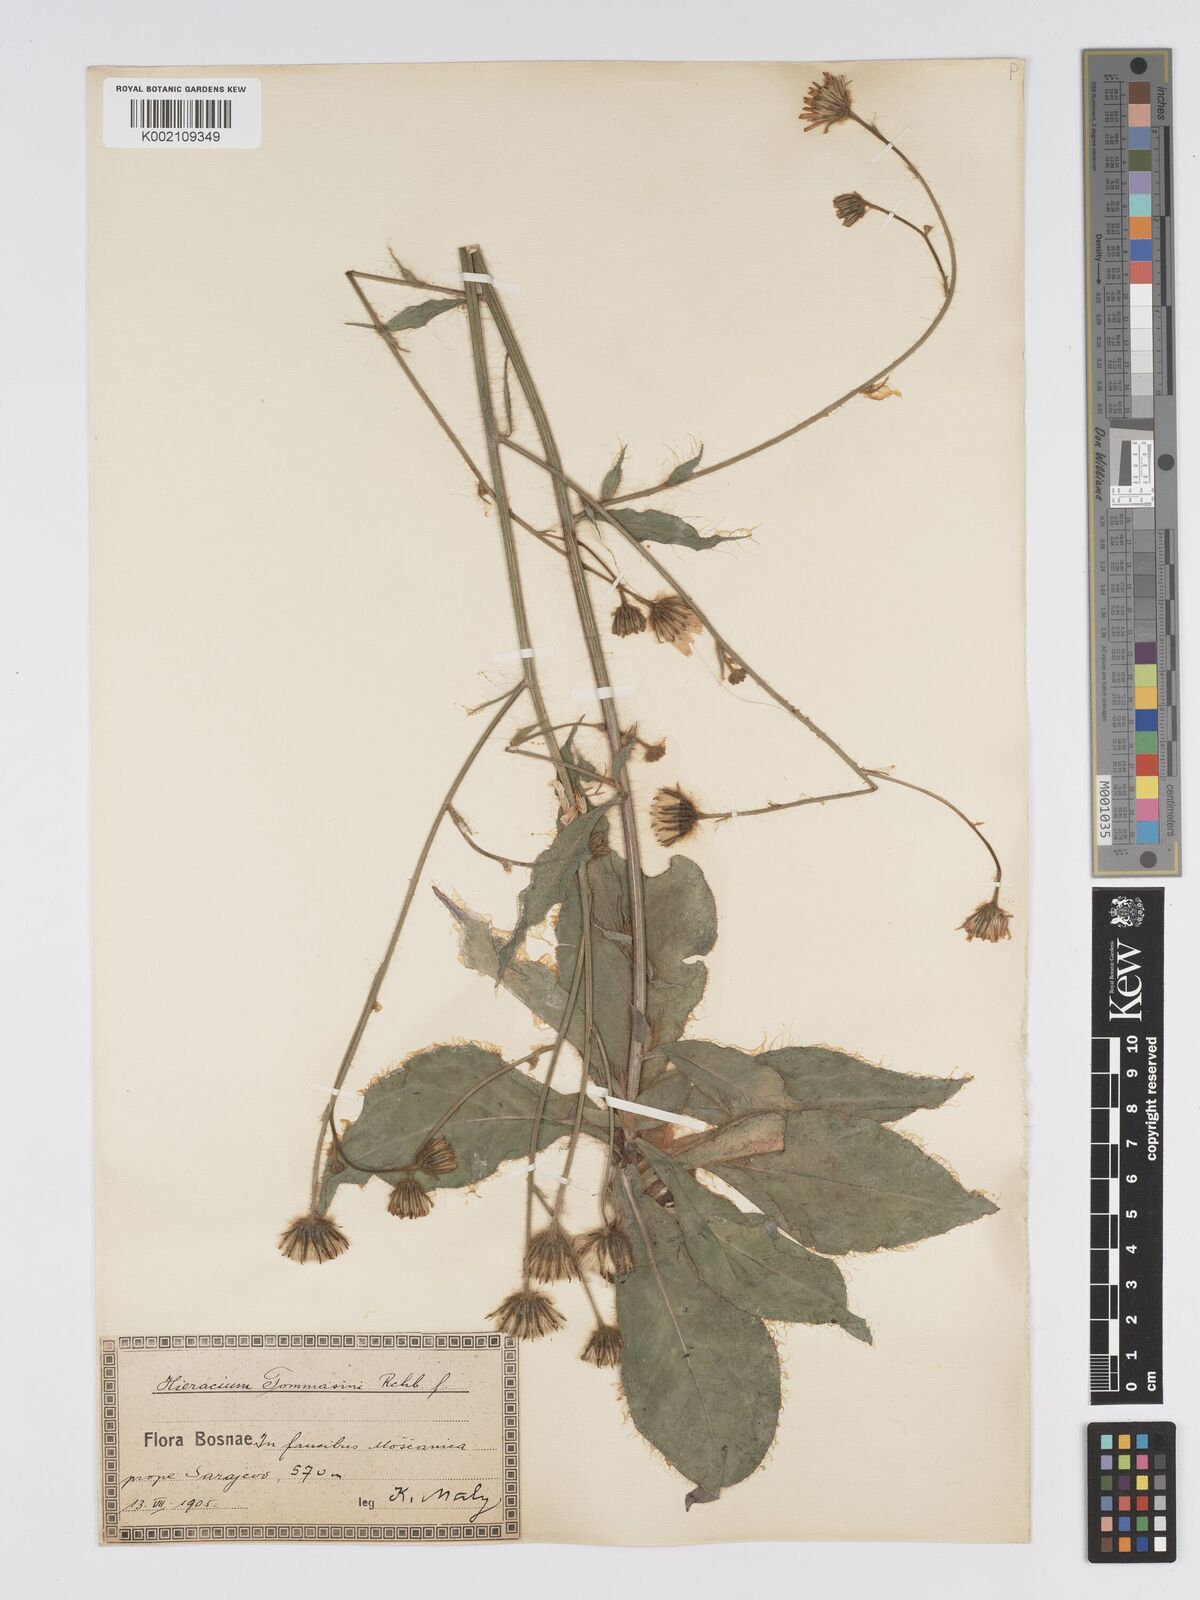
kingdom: Plantae
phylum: Tracheophyta
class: Magnoliopsida
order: Asterales
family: Asteraceae
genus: Hieracium
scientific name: Hieracium tommasinianum
